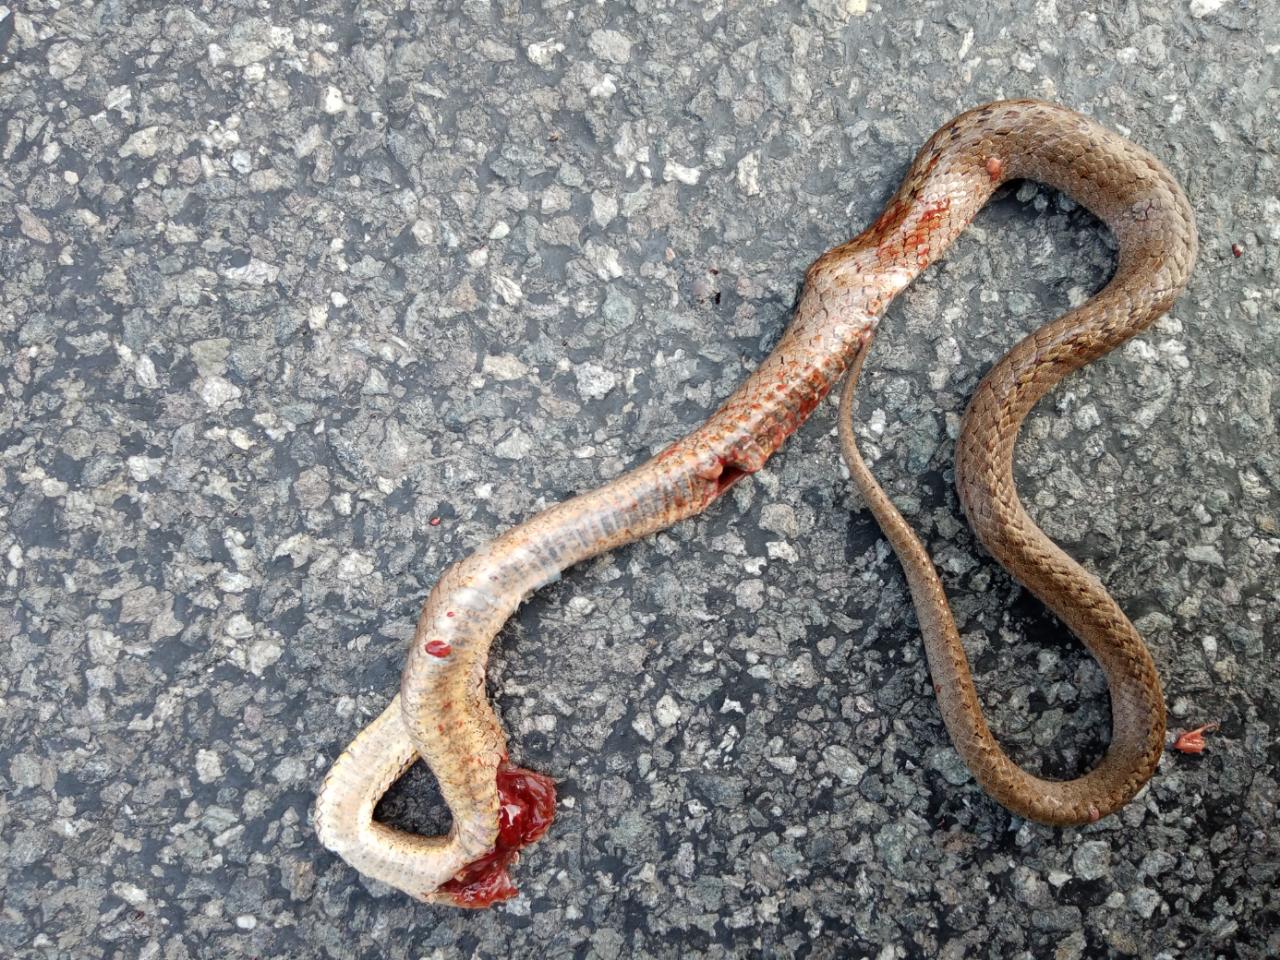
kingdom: Animalia
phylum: Chordata
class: Squamata
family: Colubridae
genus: Coronella
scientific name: Coronella austriaca
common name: Smooth snake
